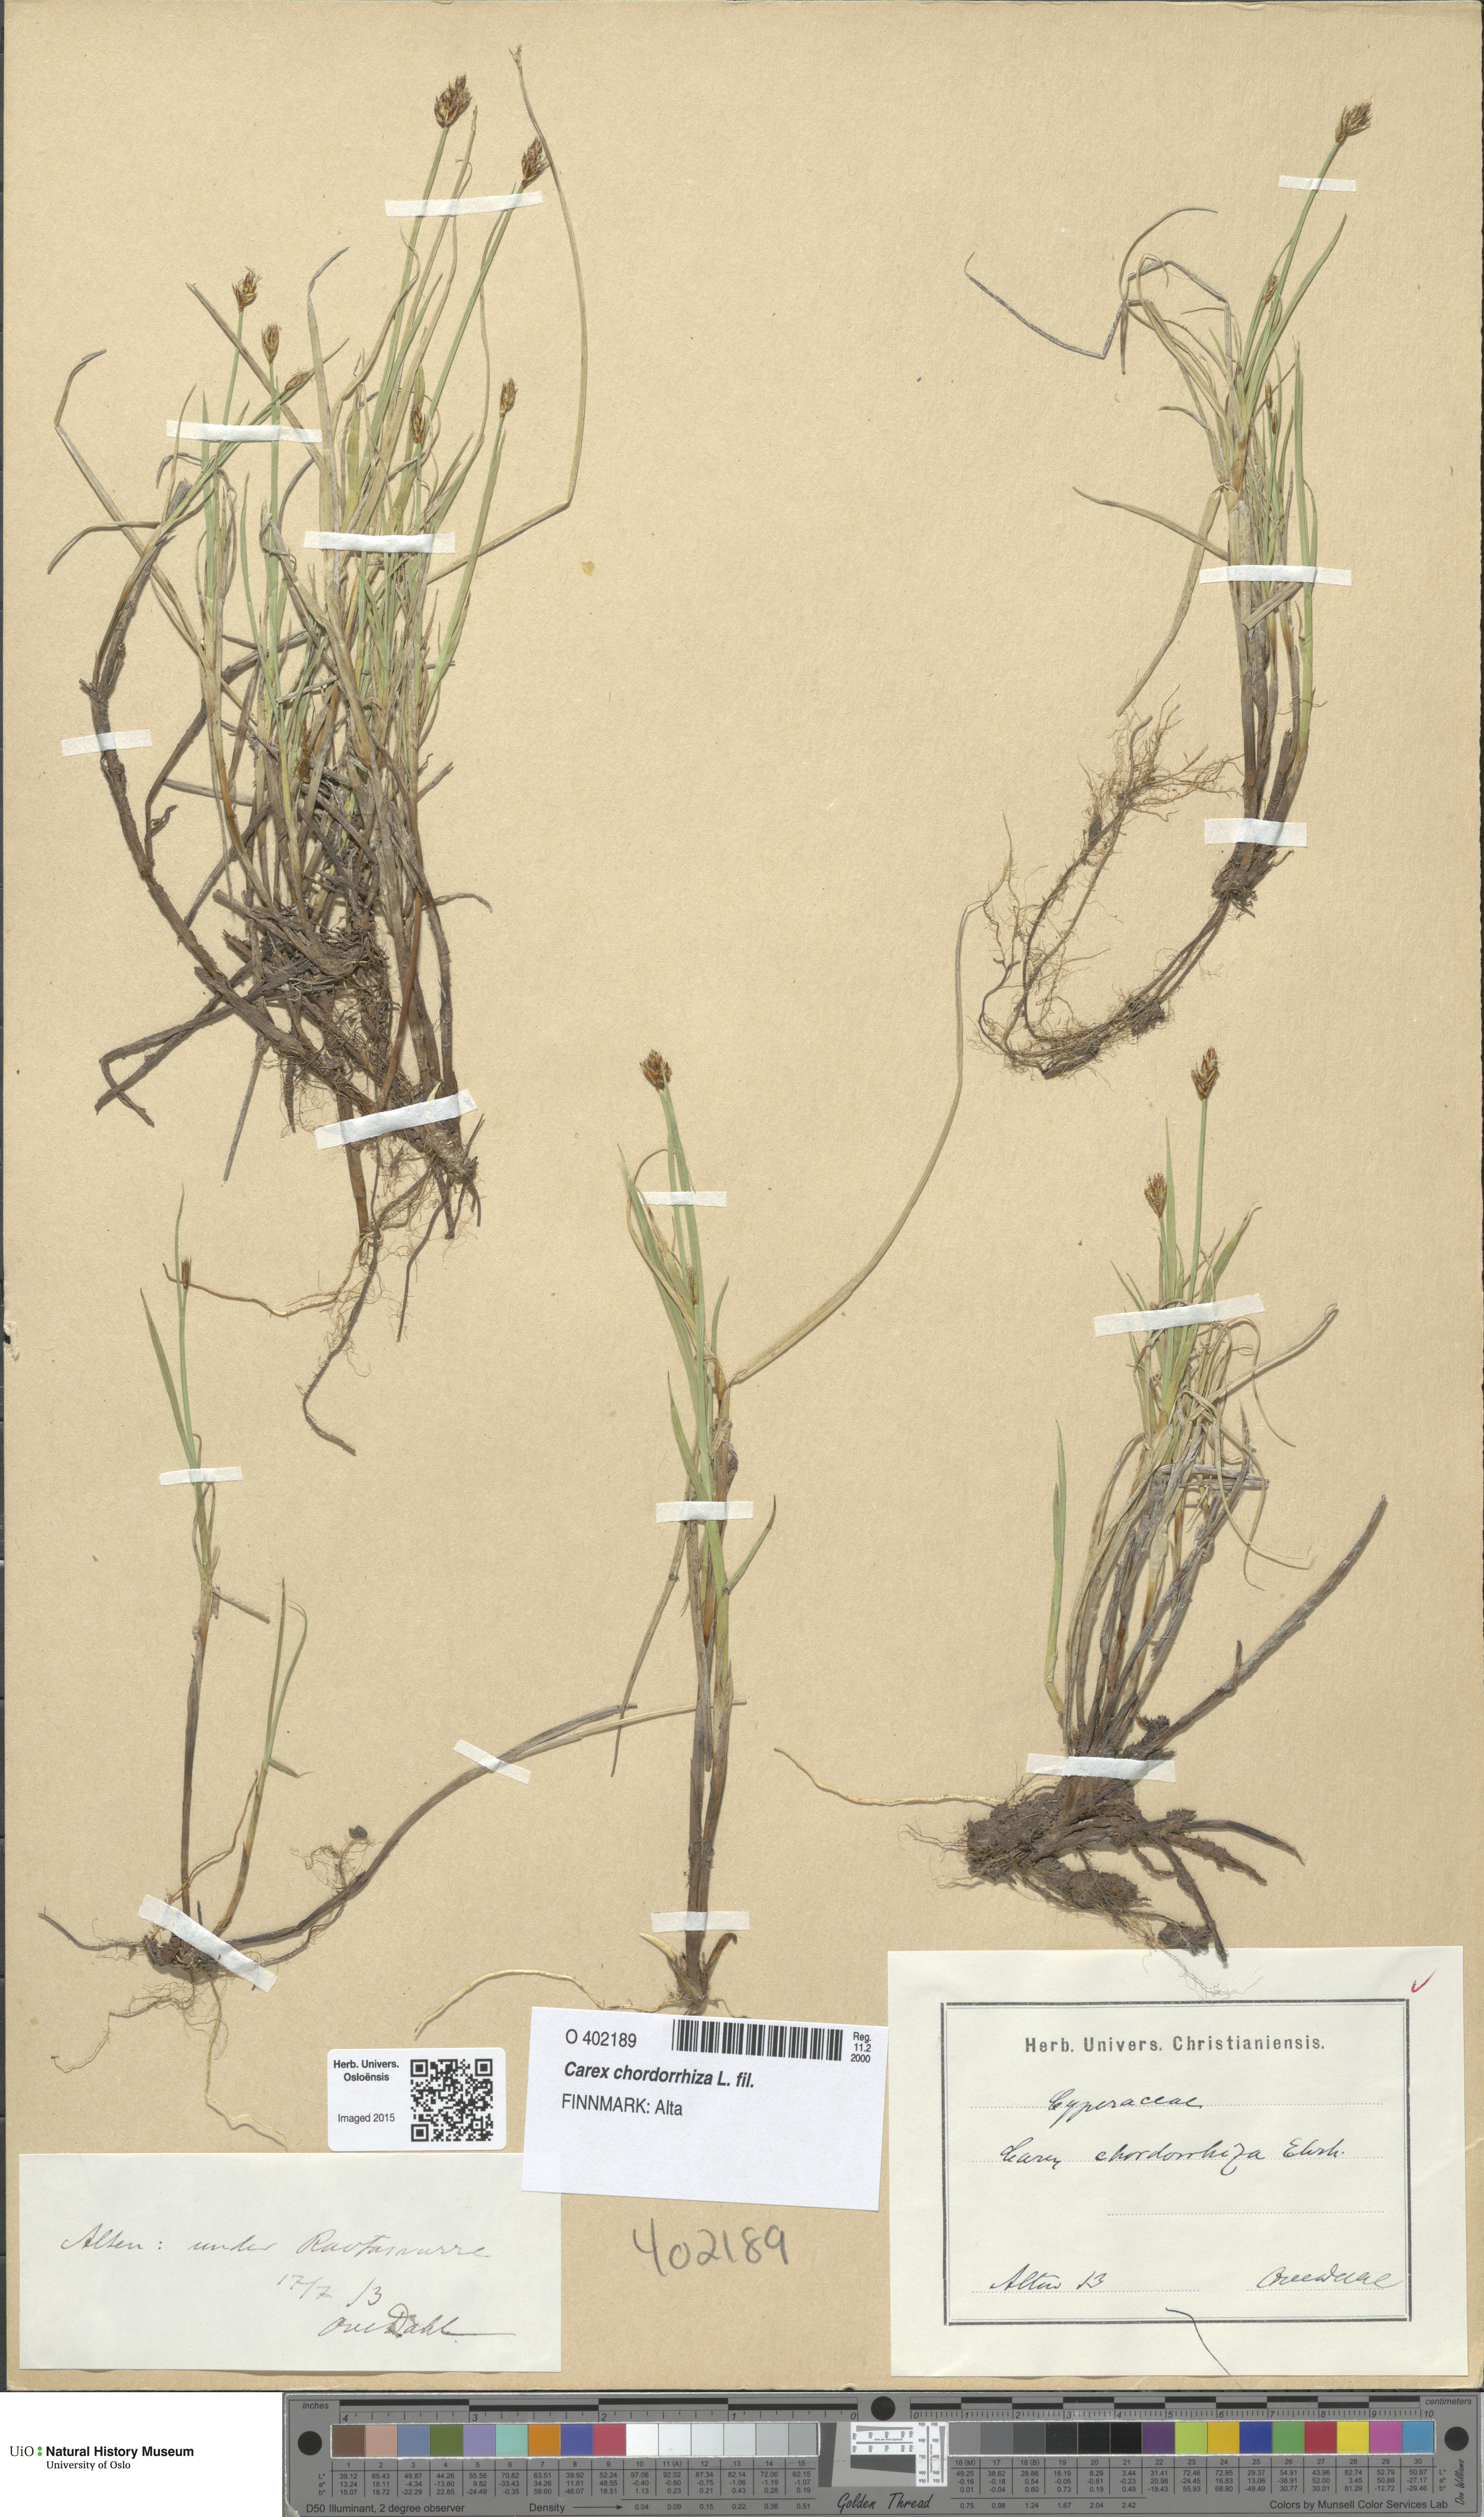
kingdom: Plantae
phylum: Tracheophyta
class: Liliopsida
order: Poales
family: Cyperaceae
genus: Carex
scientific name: Carex chordorrhiza
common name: String sedge
